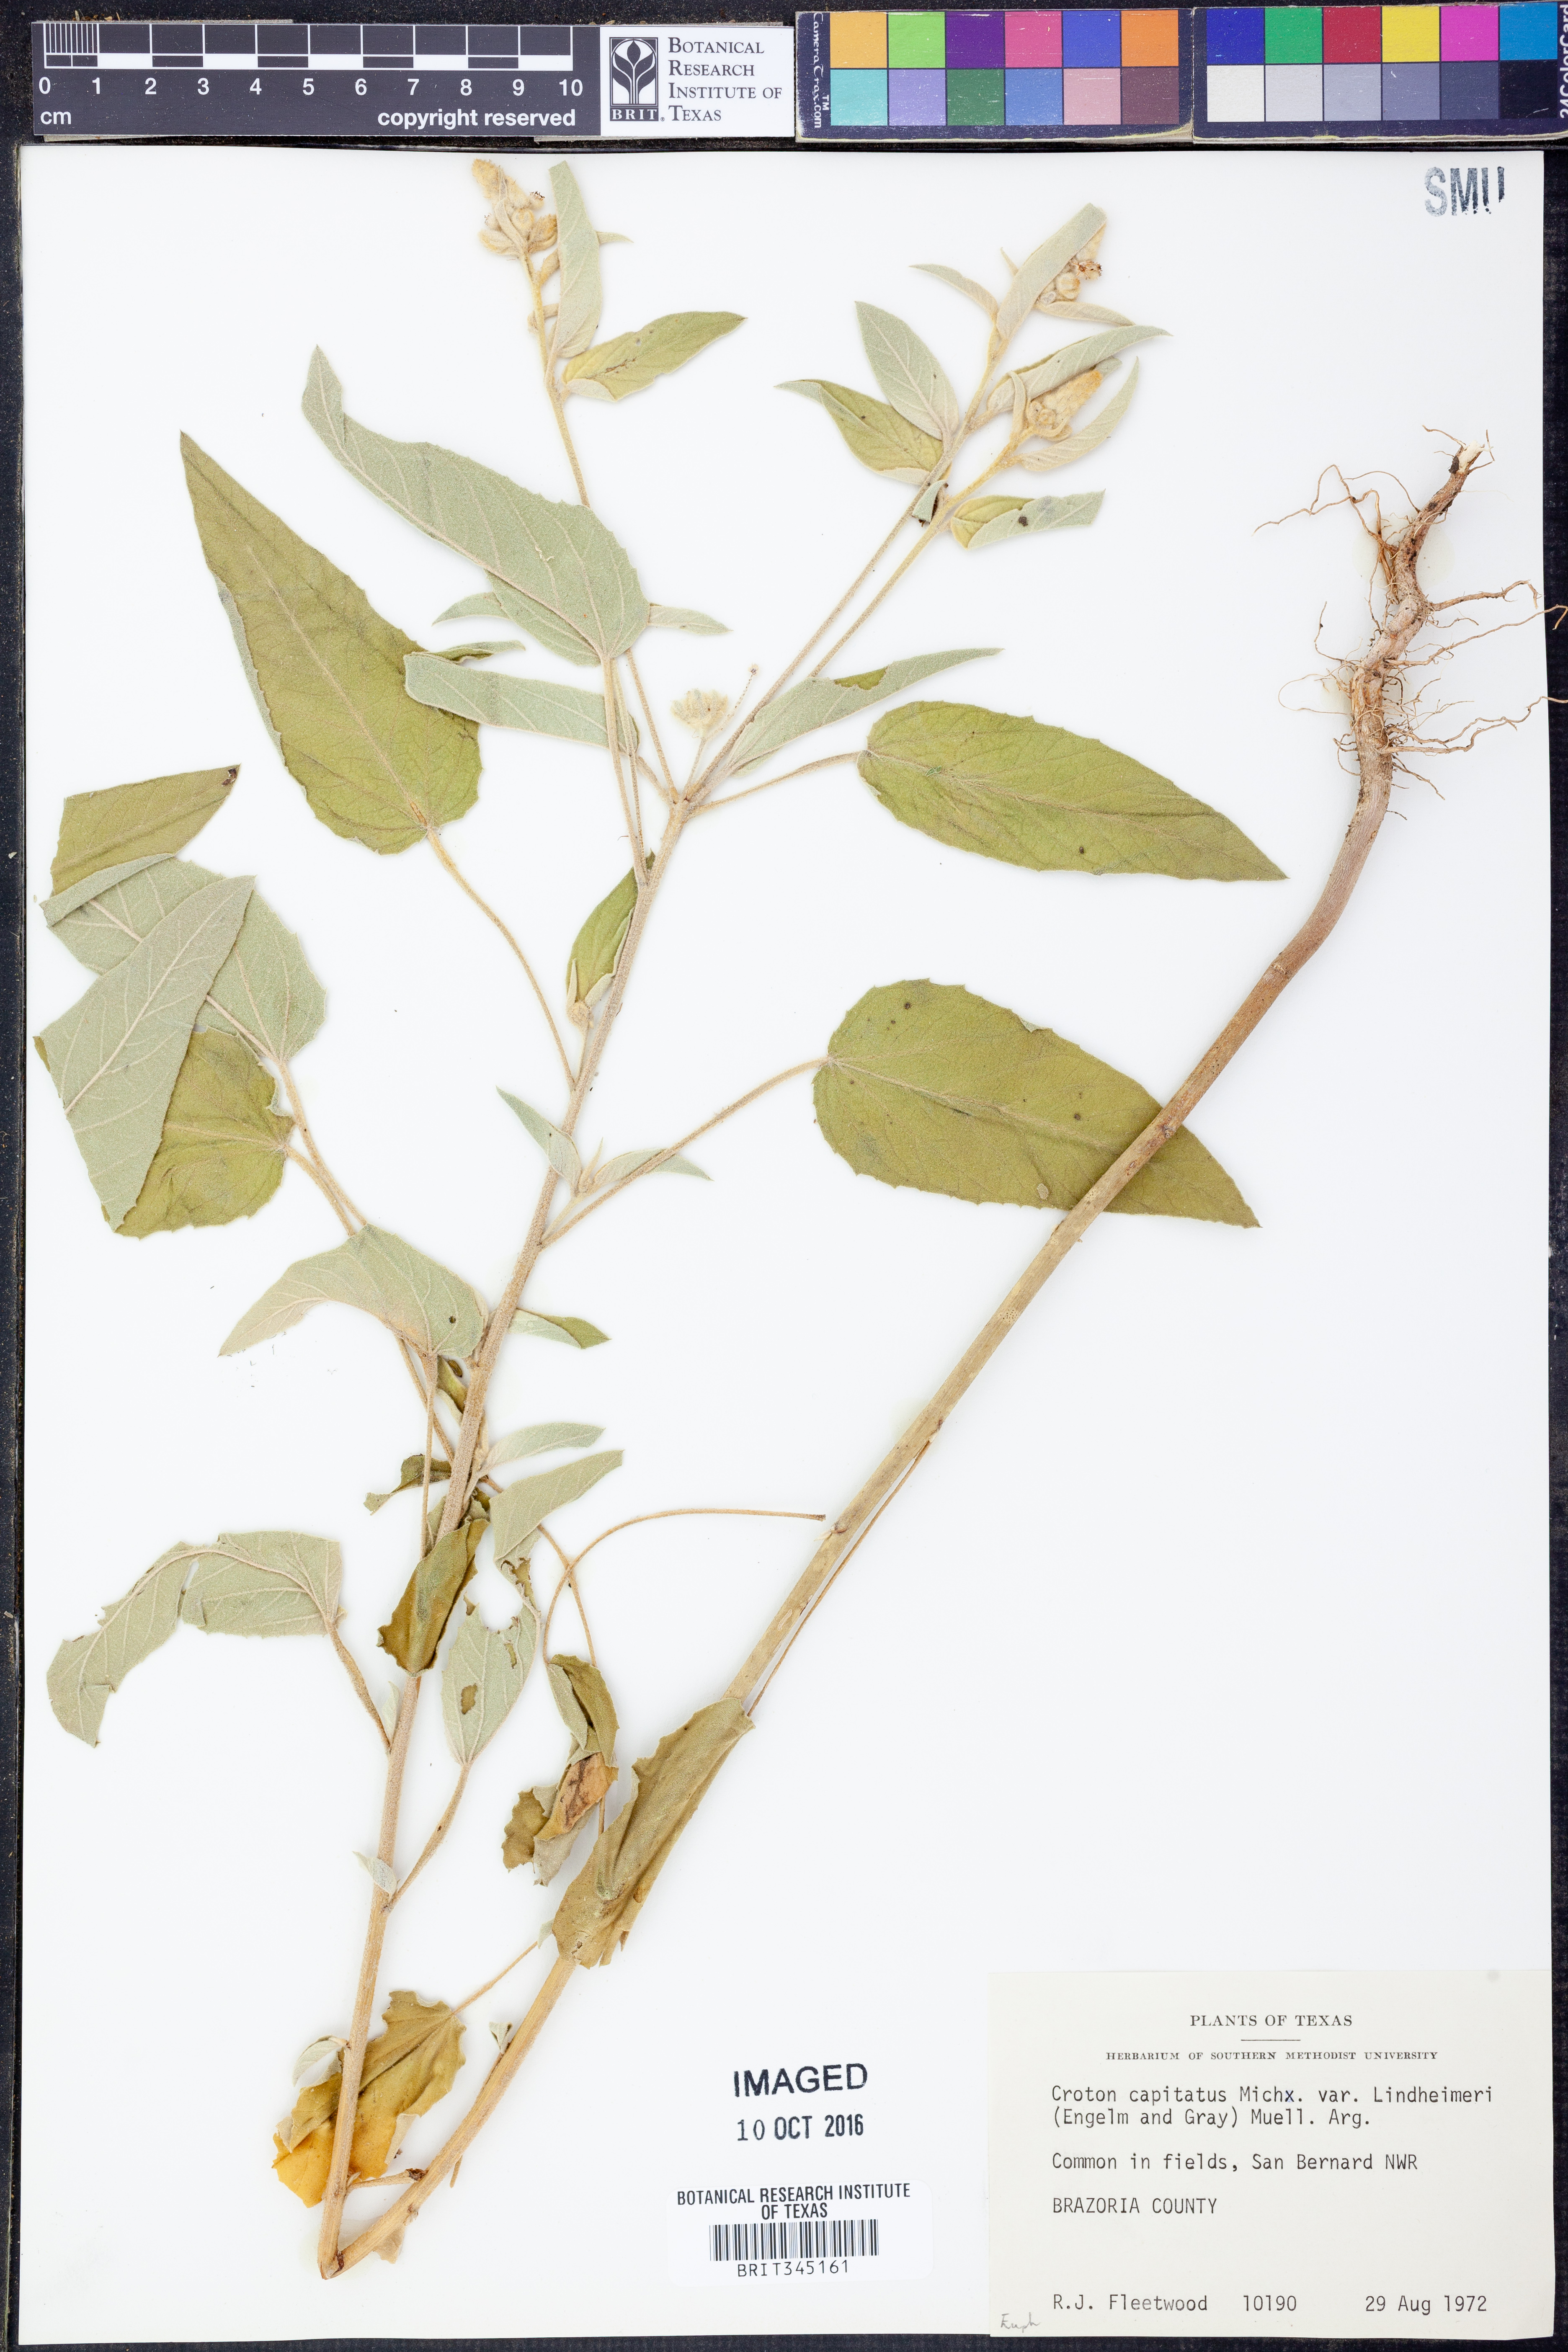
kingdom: Plantae
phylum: Tracheophyta
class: Magnoliopsida
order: Malpighiales
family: Euphorbiaceae
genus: Croton
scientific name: Croton lindheimeri
